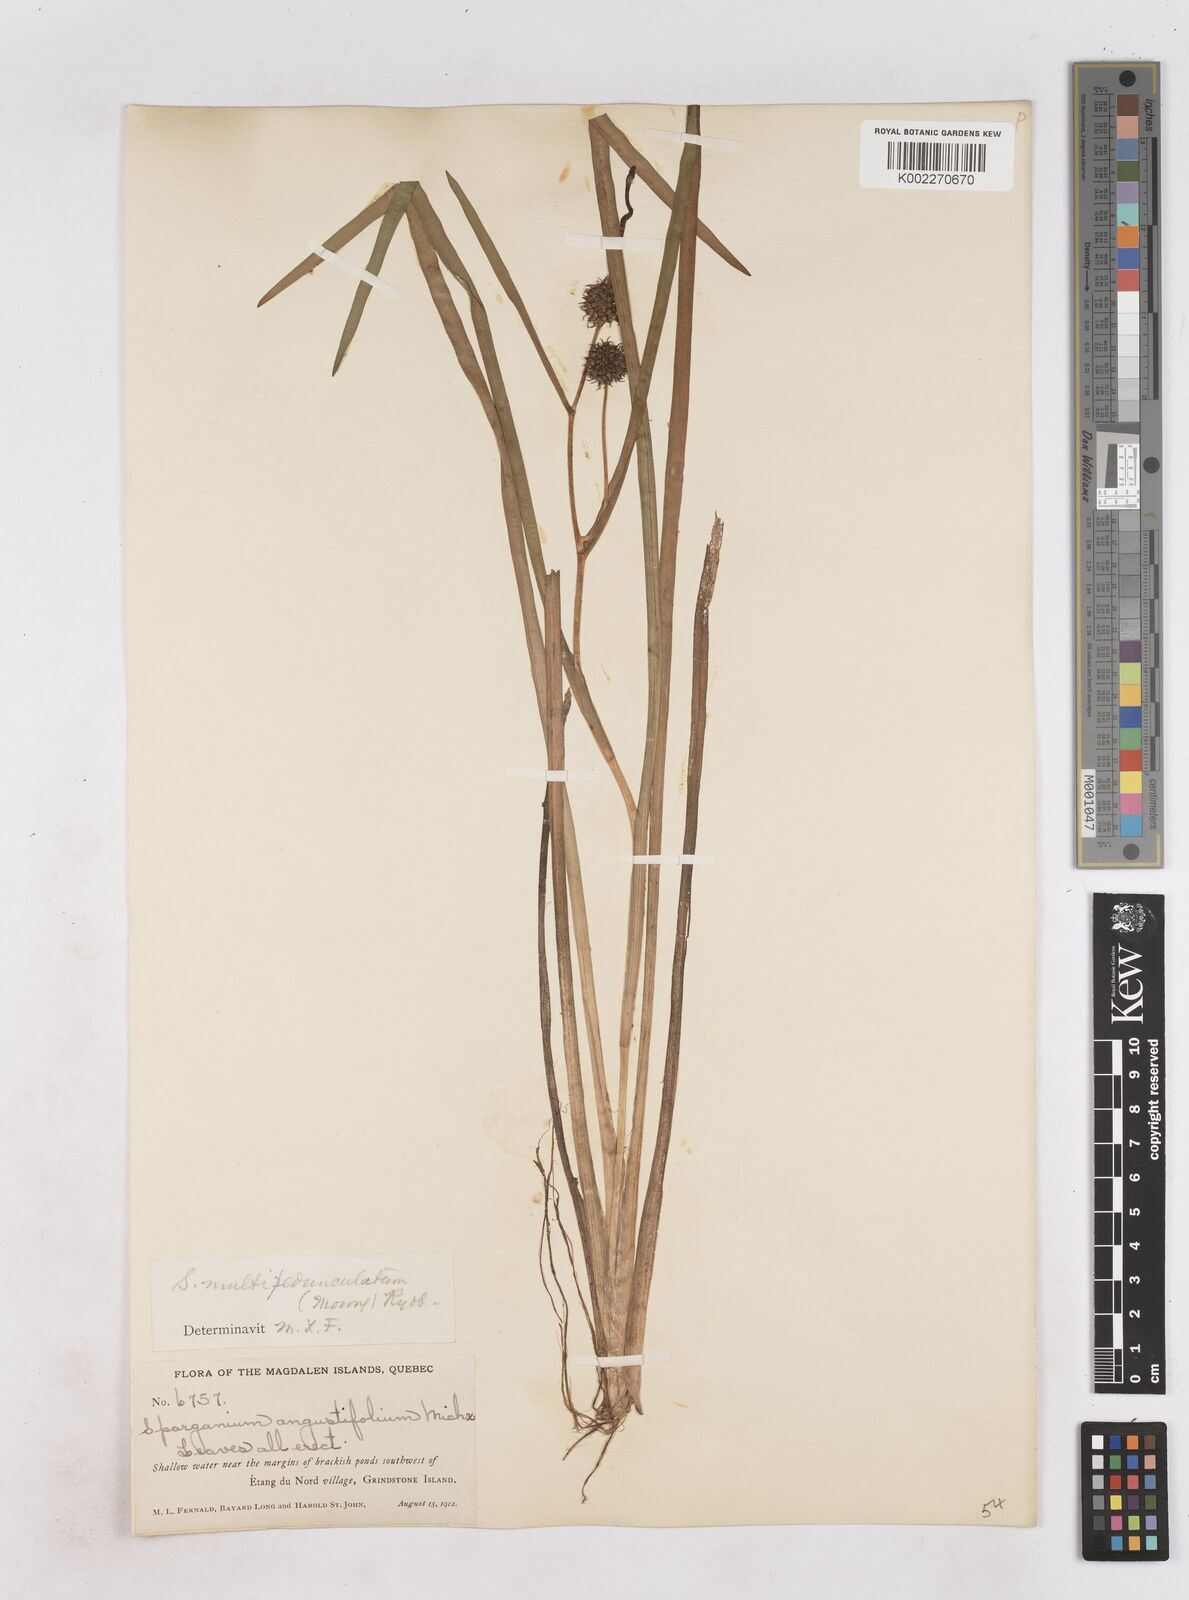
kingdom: Plantae
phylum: Tracheophyta
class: Liliopsida
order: Poales
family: Typhaceae
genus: Sparganium
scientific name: Sparganium emersum
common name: Unbranched bur-reed
